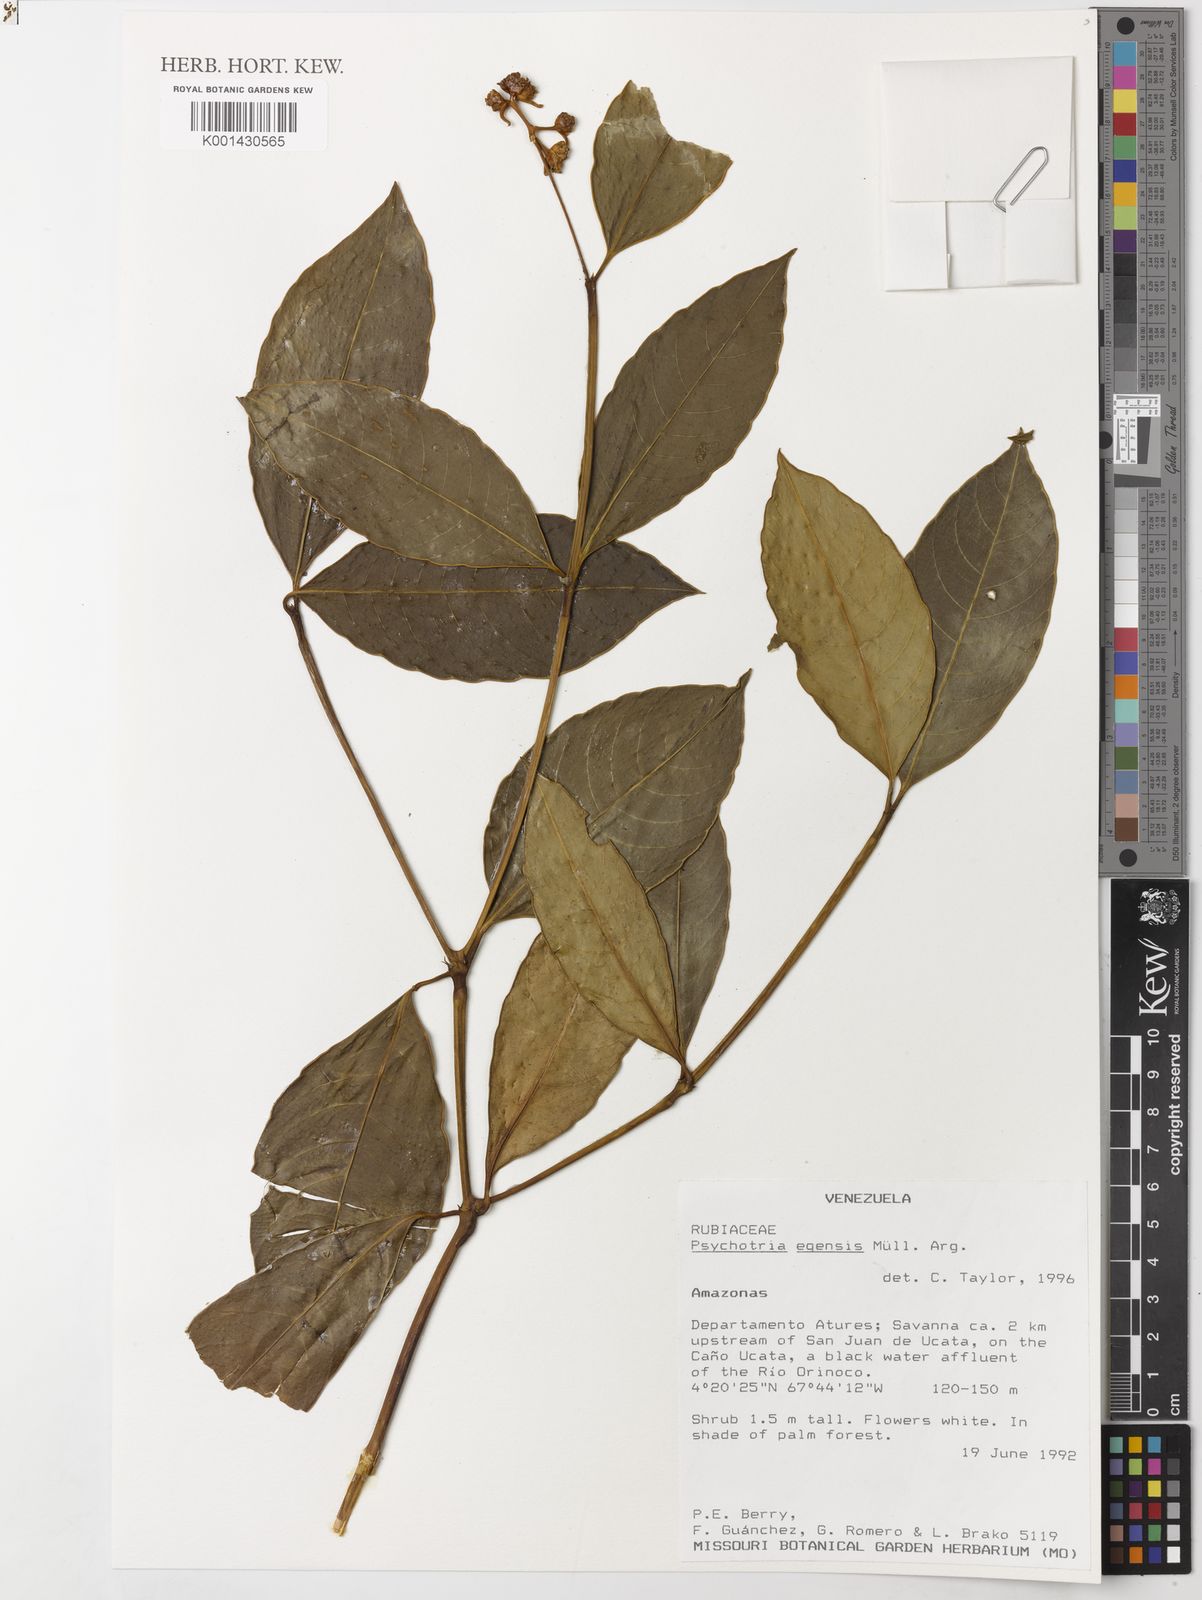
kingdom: Plantae
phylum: Tracheophyta
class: Magnoliopsida
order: Gentianales
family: Rubiaceae
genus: Psychotria
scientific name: Psychotria
